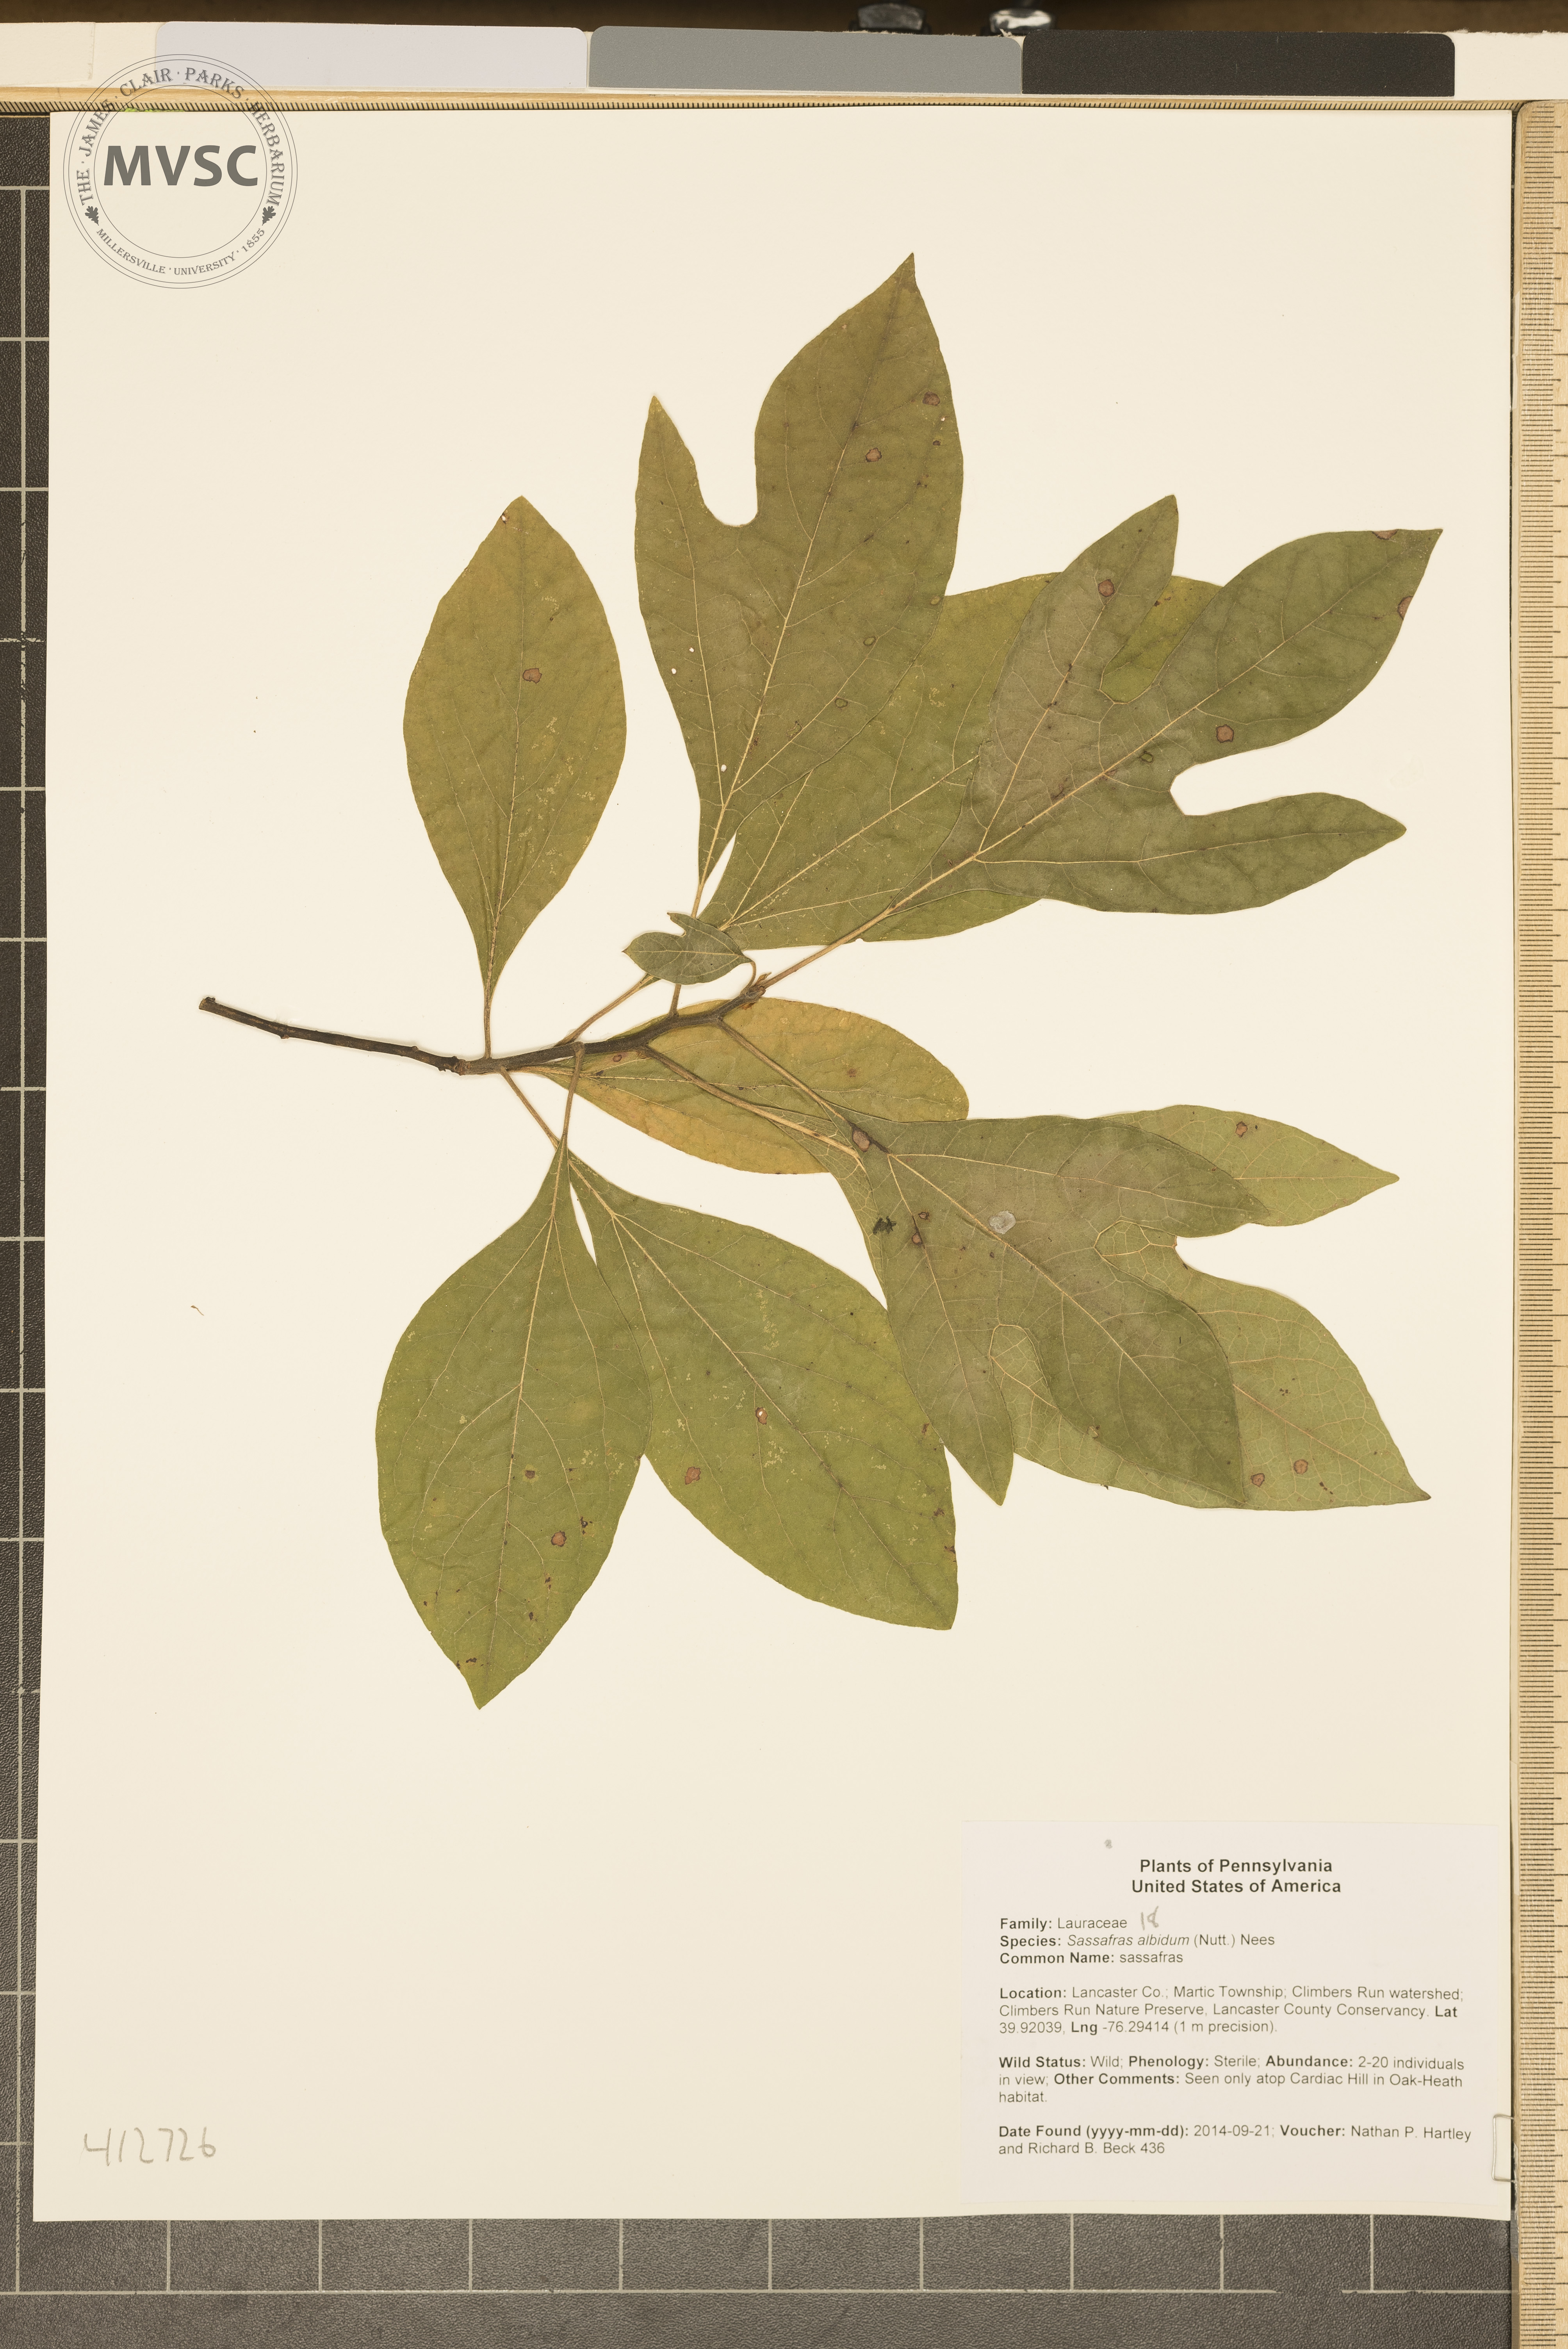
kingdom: Plantae
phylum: Tracheophyta
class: Magnoliopsida
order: Laurales
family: Lauraceae
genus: Sassafras
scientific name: Sassafras albidum
